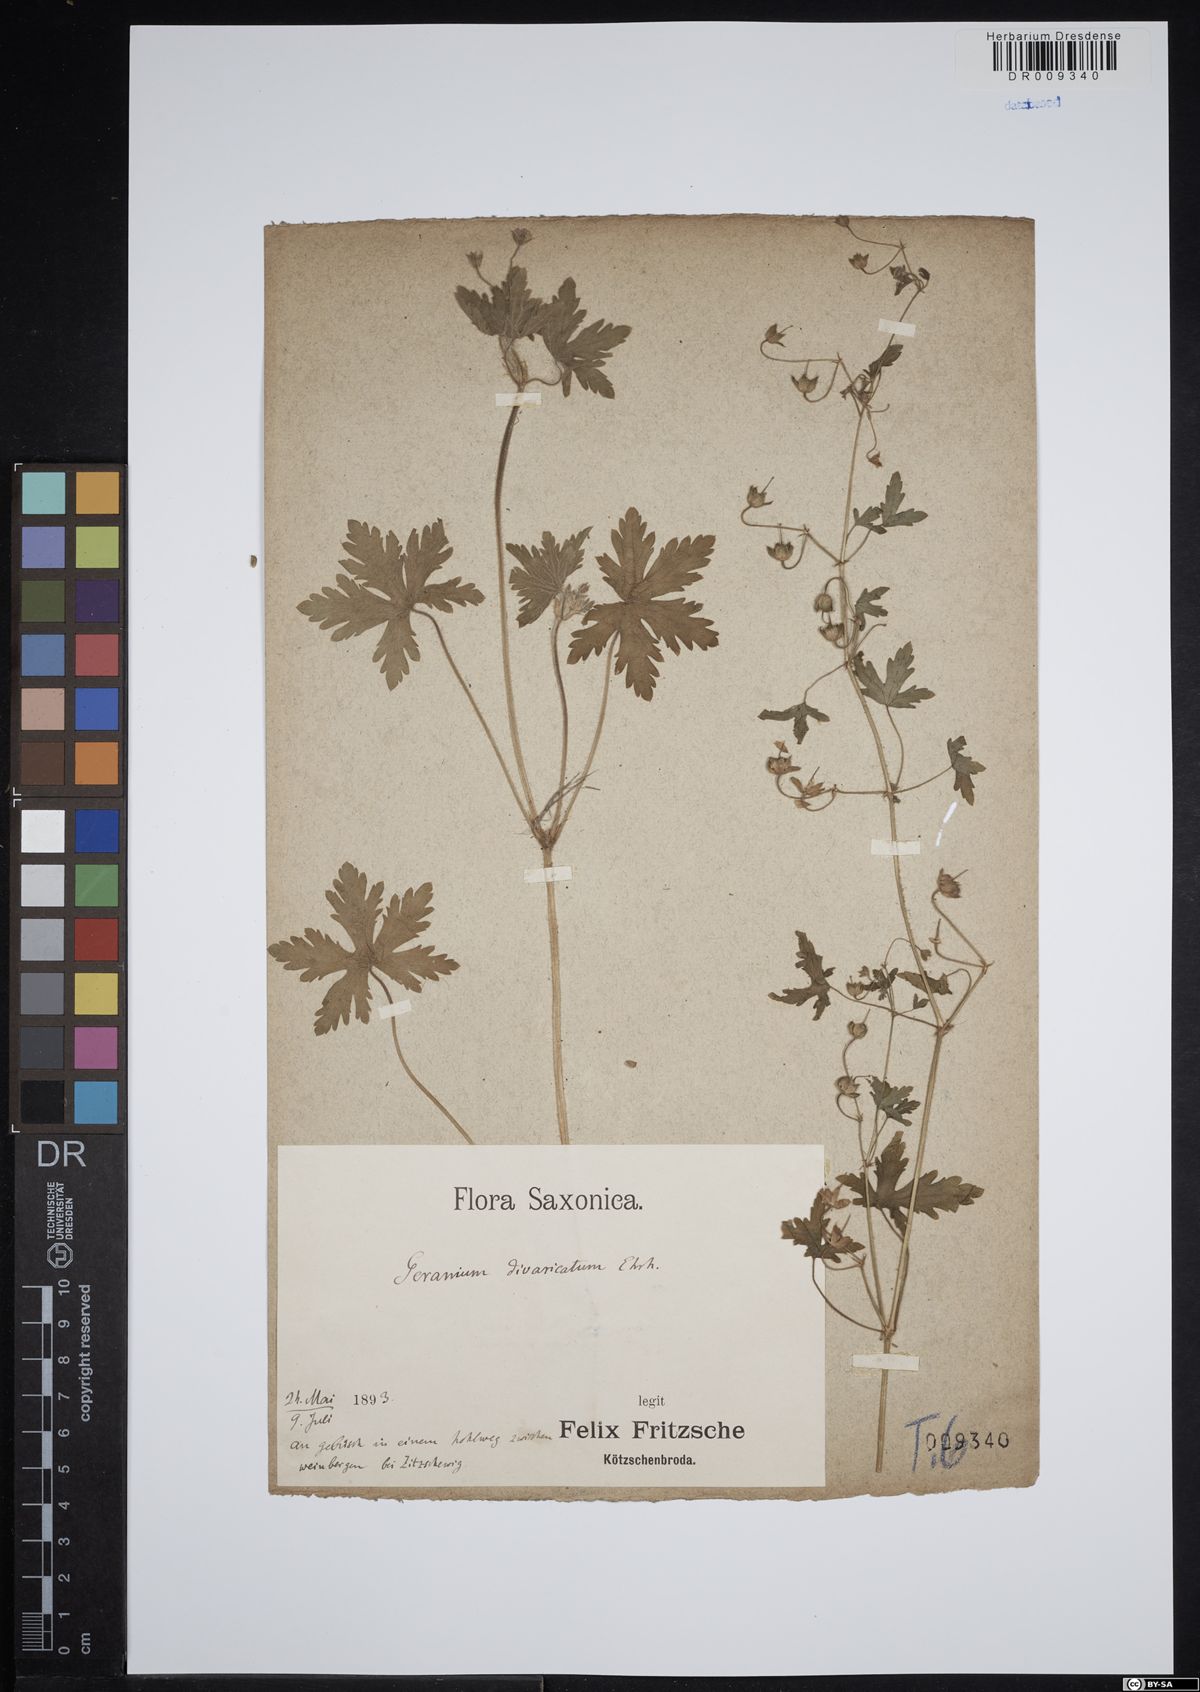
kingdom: Plantae
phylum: Tracheophyta
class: Magnoliopsida
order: Geraniales
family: Geraniaceae
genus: Geranium
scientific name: Geranium divaricatum
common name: Spreading crane's-bill
